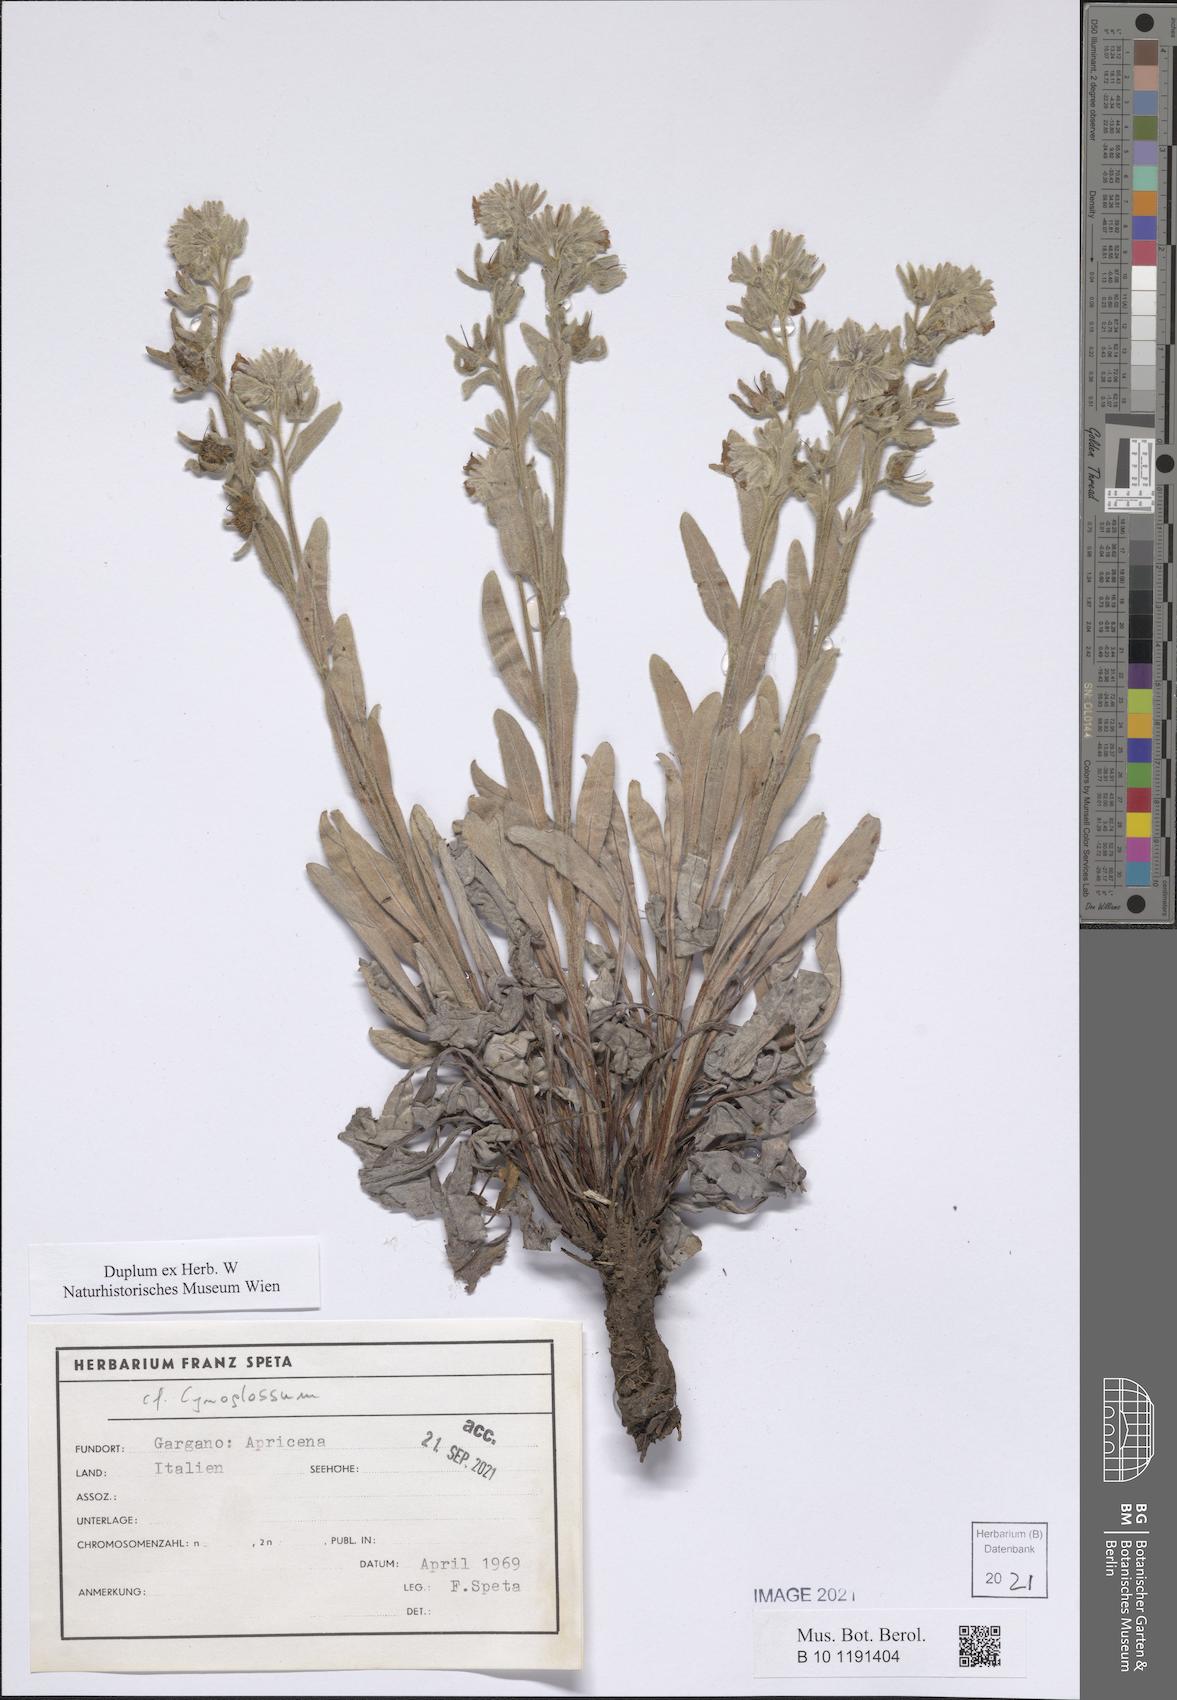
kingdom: Plantae
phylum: Tracheophyta
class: Magnoliopsida
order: Boraginales
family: Boraginaceae
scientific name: Boraginaceae
